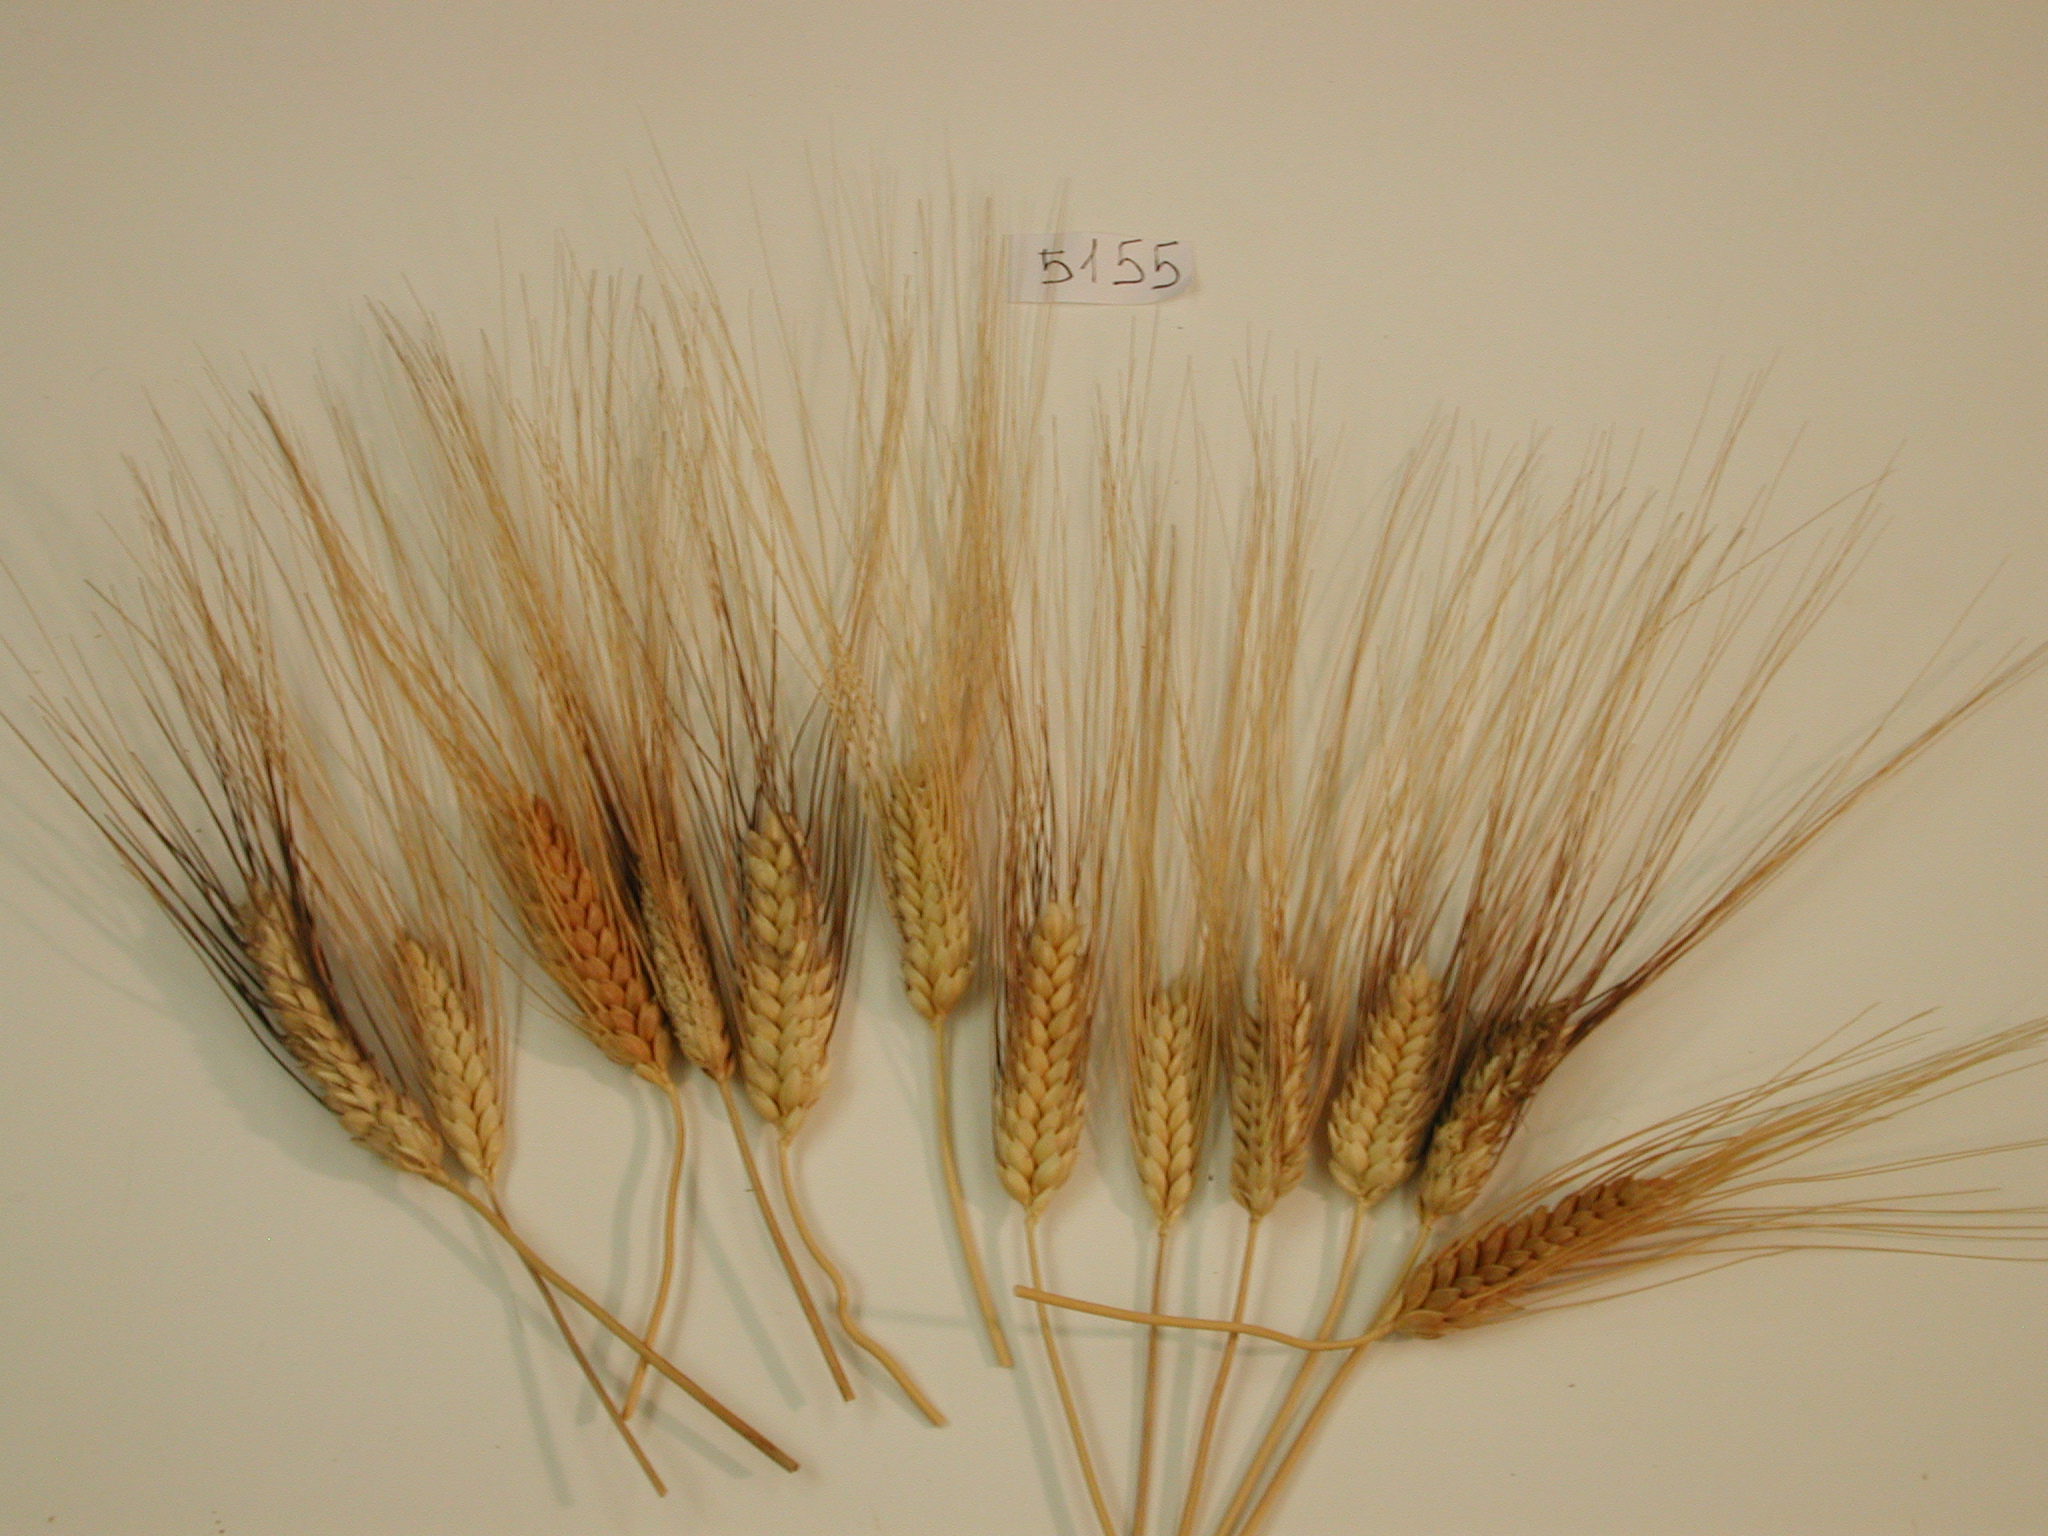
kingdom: Plantae
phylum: Tracheophyta
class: Liliopsida
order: Poales
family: Poaceae
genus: Triticum
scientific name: Triticum turgidum
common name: Rivet Wheat
